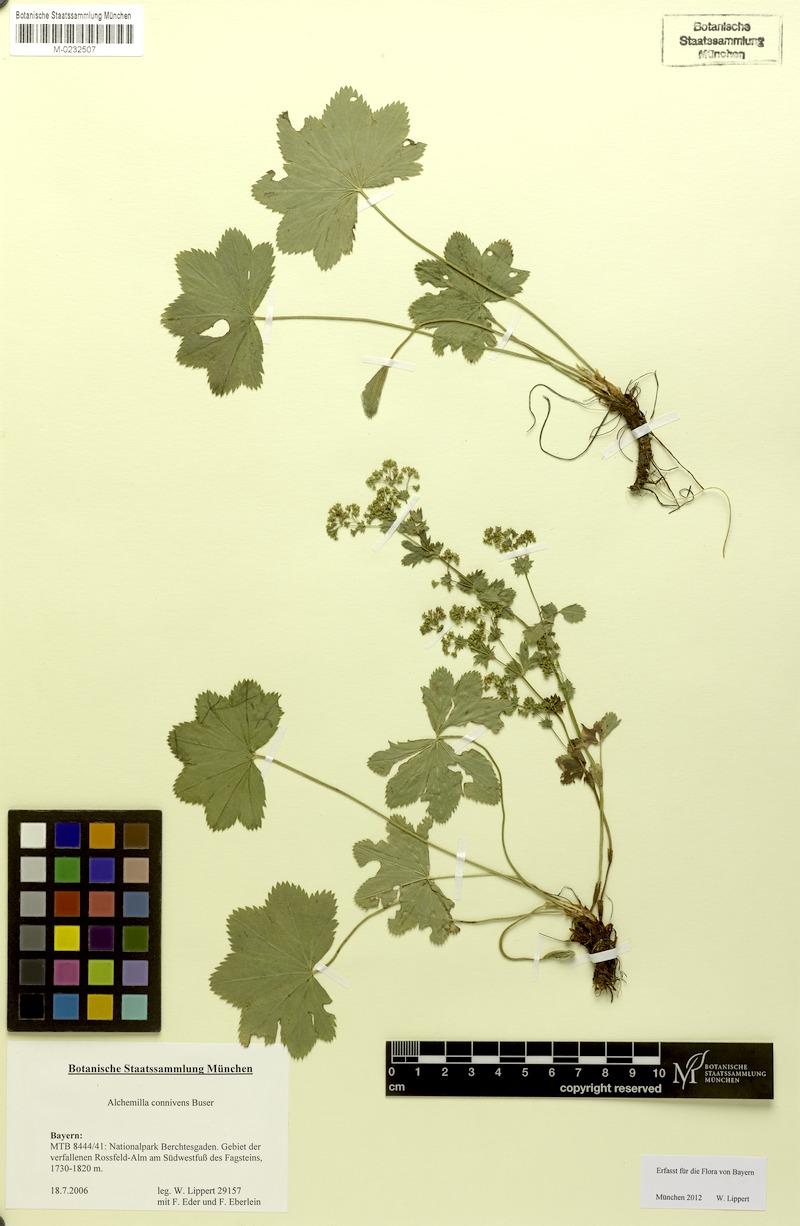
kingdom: Plantae
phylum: Tracheophyta
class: Magnoliopsida
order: Rosales
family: Rosaceae
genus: Alchemilla
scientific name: Alchemilla connivens
